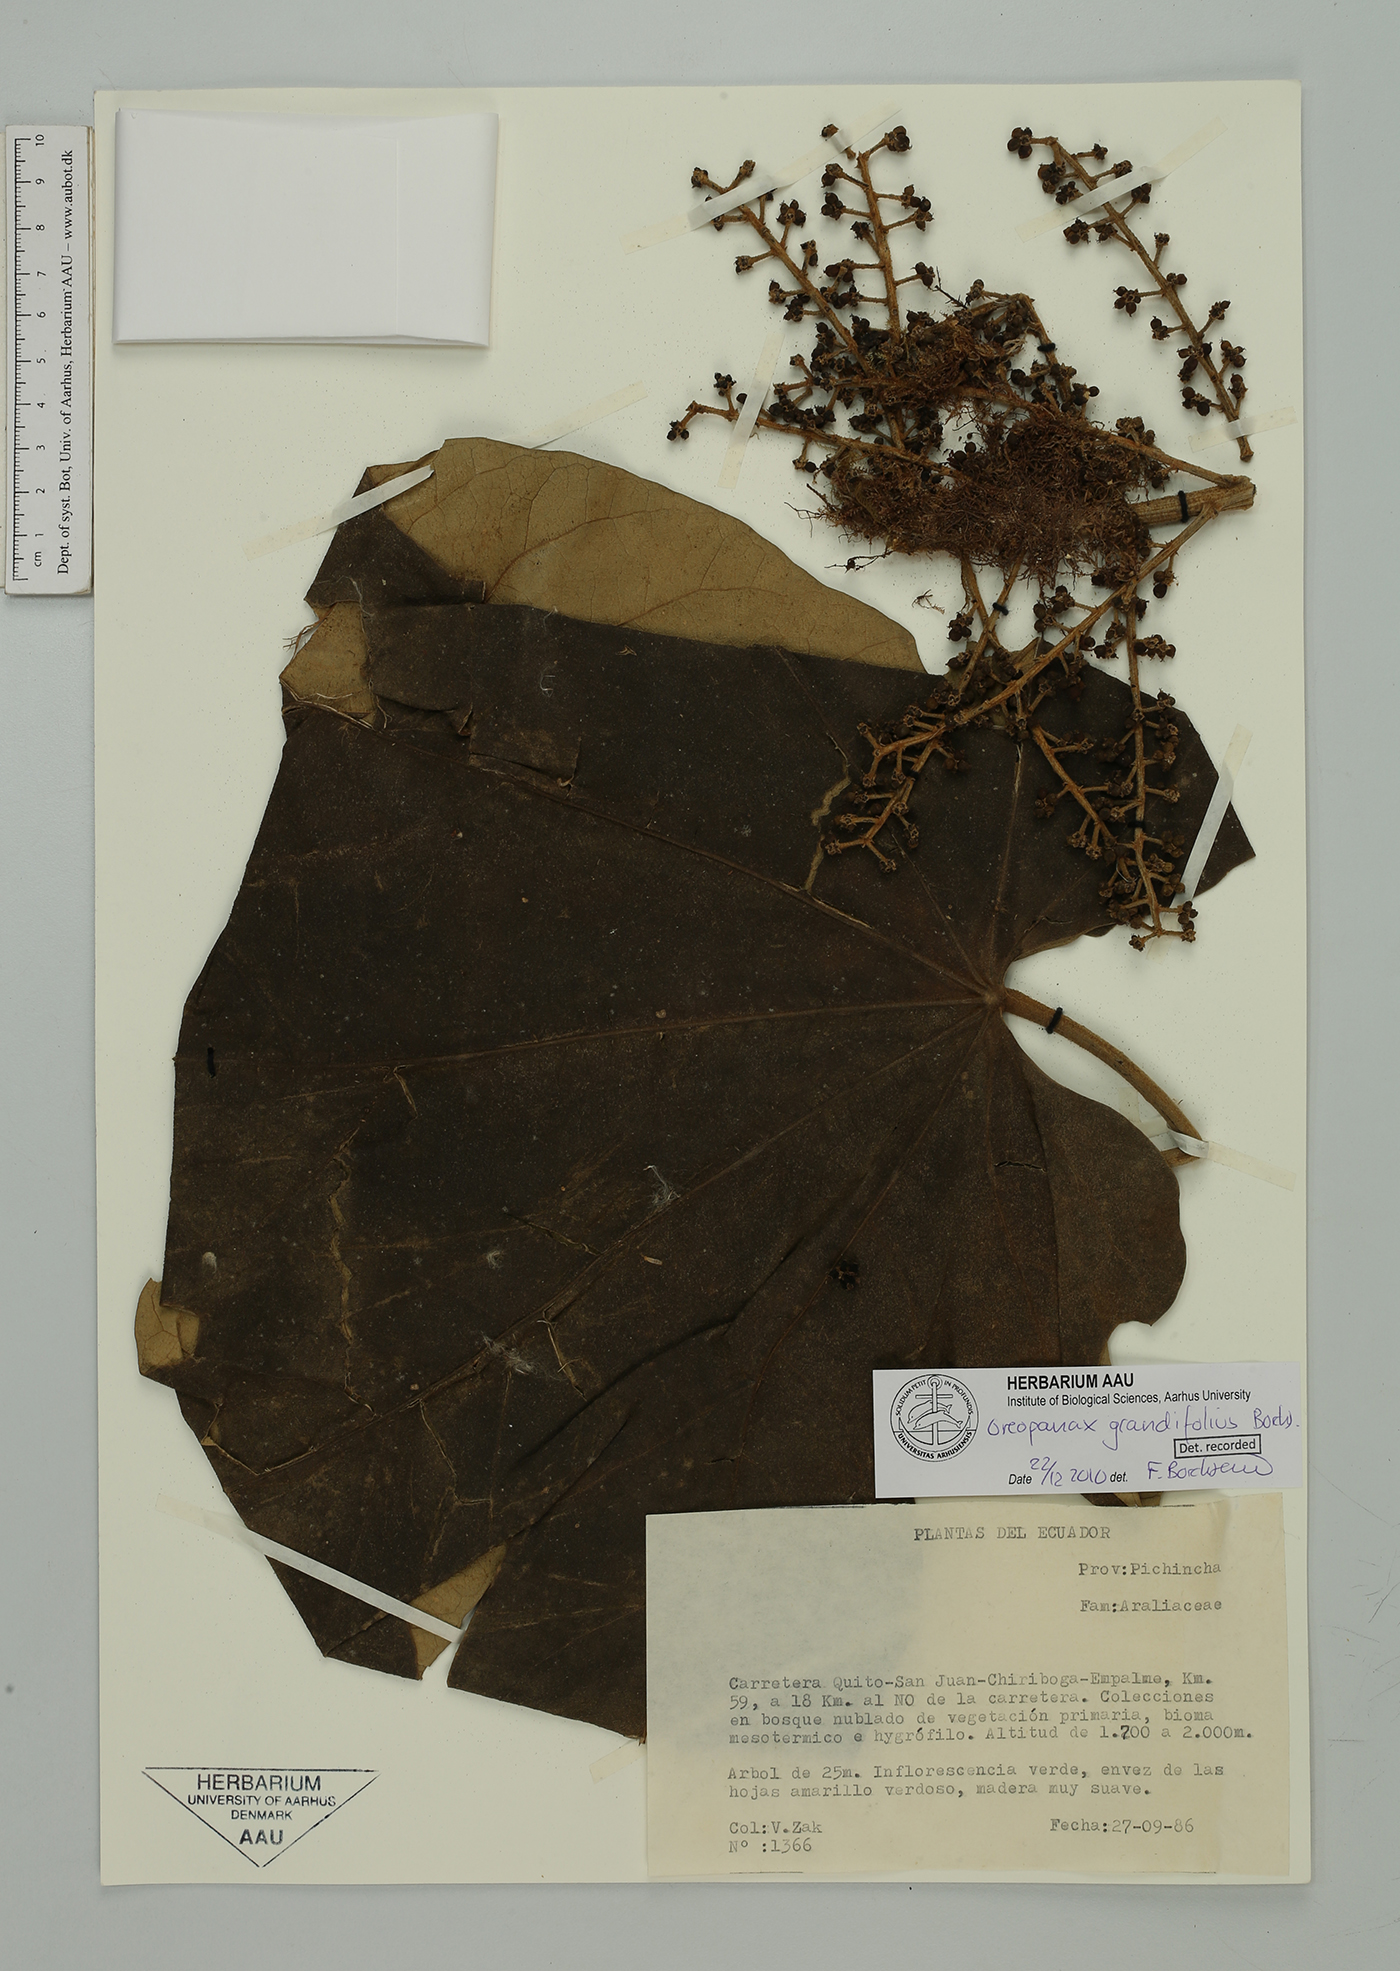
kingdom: Plantae
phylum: Tracheophyta
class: Magnoliopsida
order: Apiales
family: Araliaceae
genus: Oreopanax
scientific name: Oreopanax grandifolius
